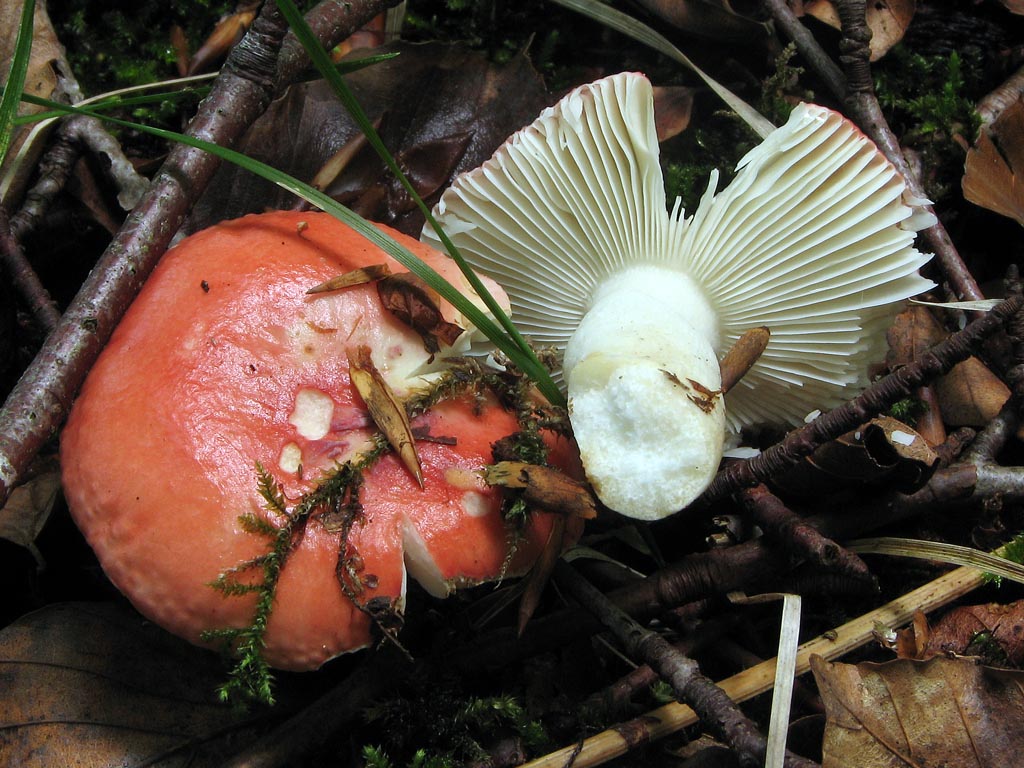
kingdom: Fungi
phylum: Basidiomycota
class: Agaricomycetes
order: Russulales
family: Russulaceae
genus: Russula
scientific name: Russula faginea
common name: bøge-skørhat
